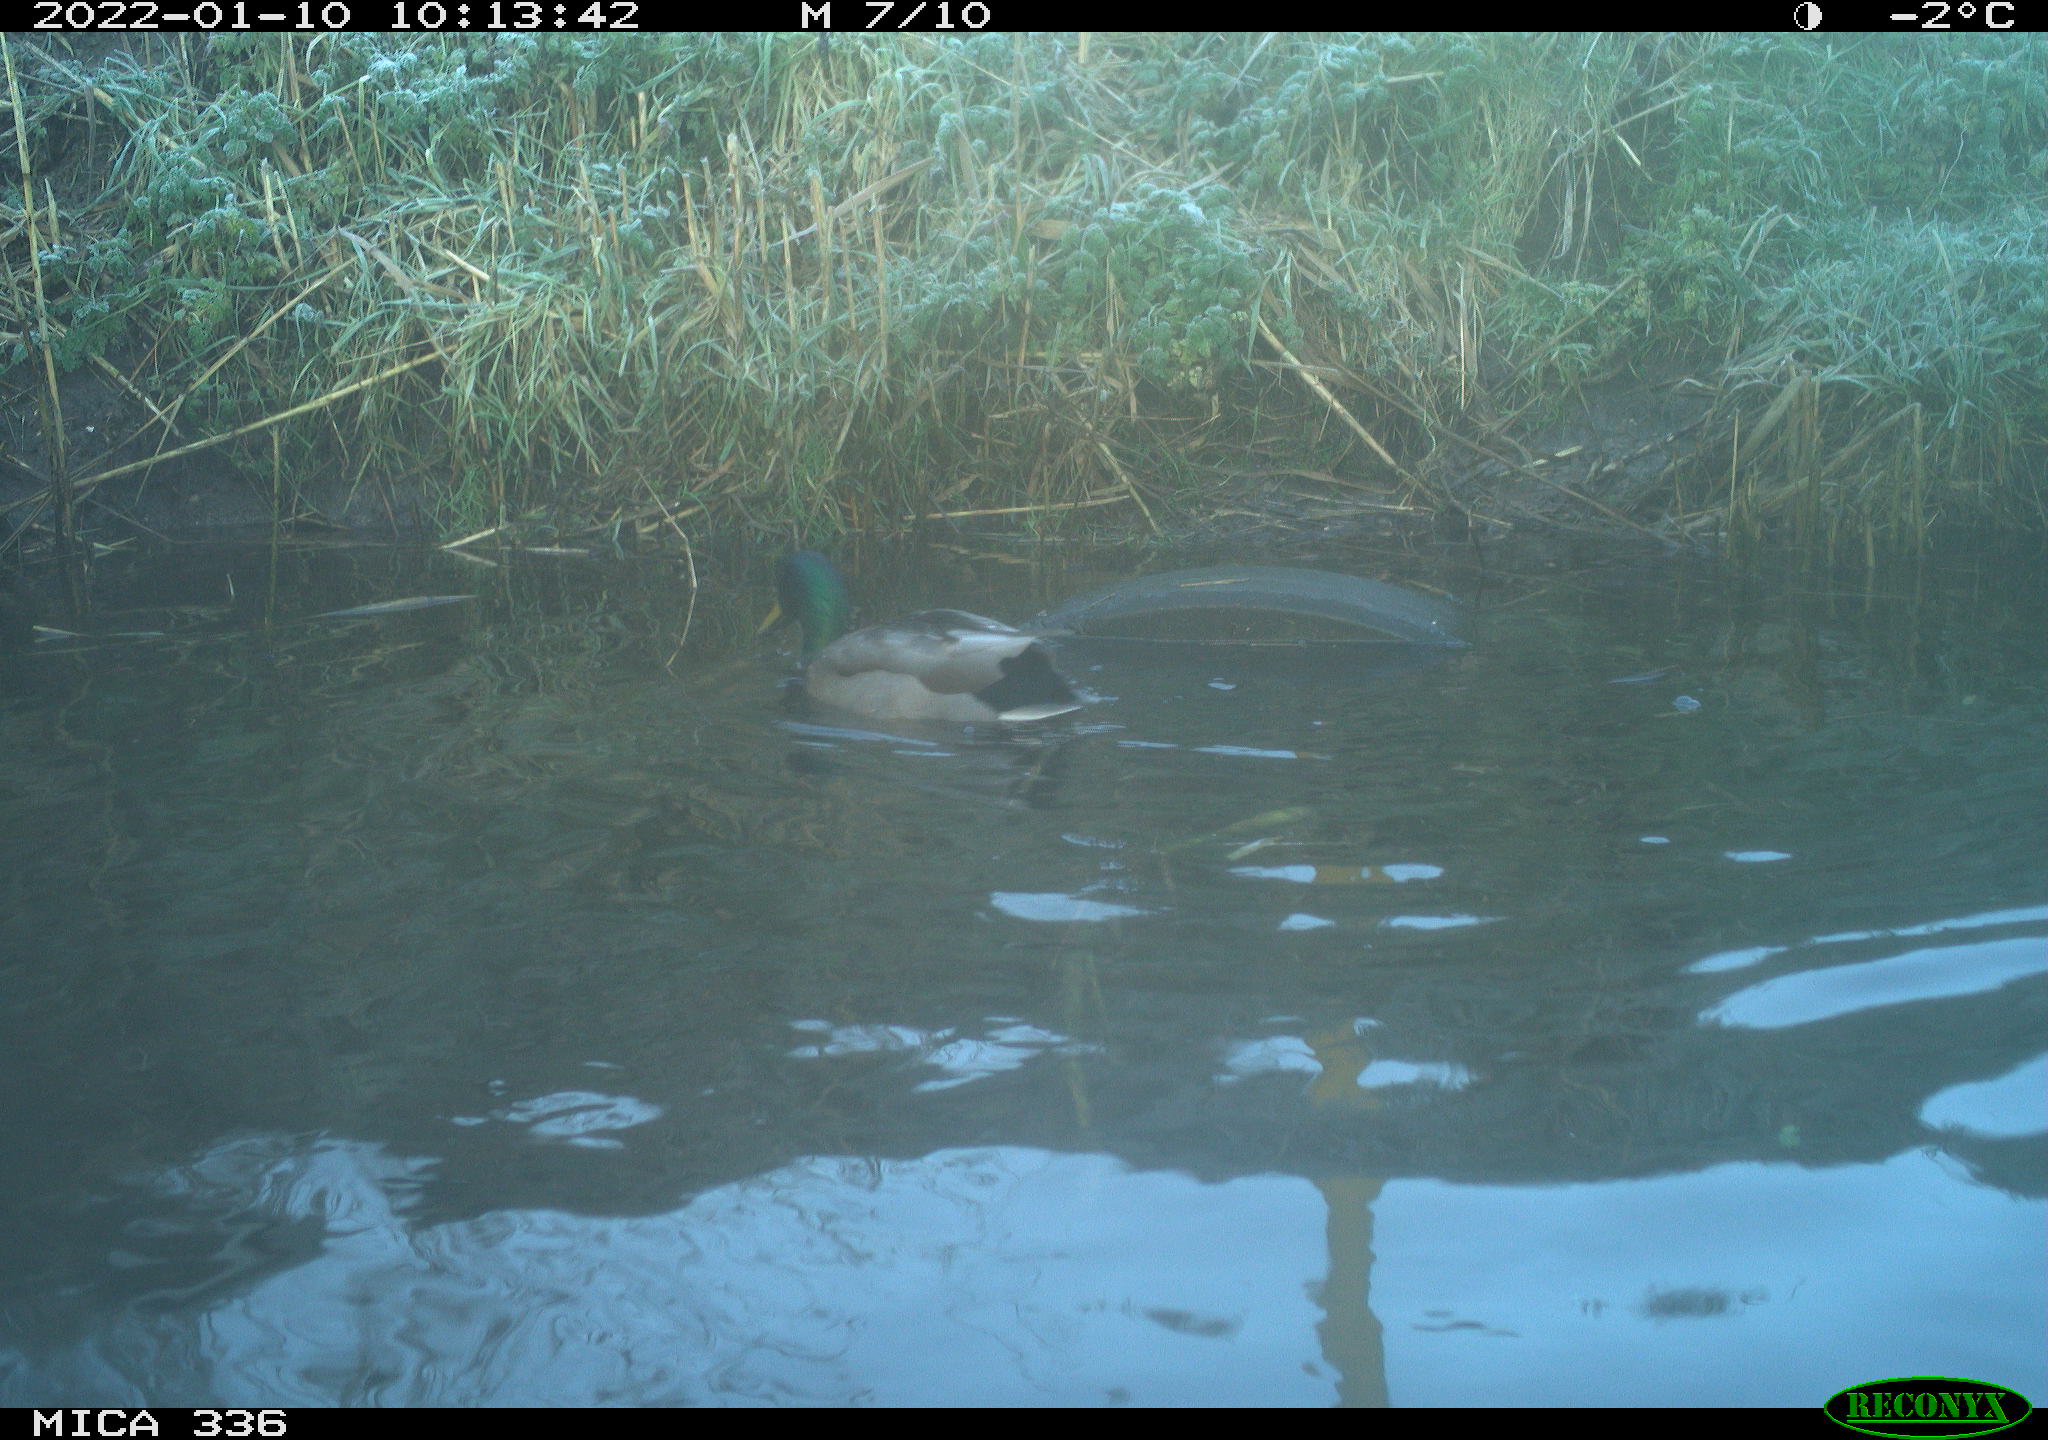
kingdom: Animalia
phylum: Chordata
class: Aves
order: Anseriformes
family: Anatidae
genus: Anas
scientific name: Anas platyrhynchos
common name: Mallard
